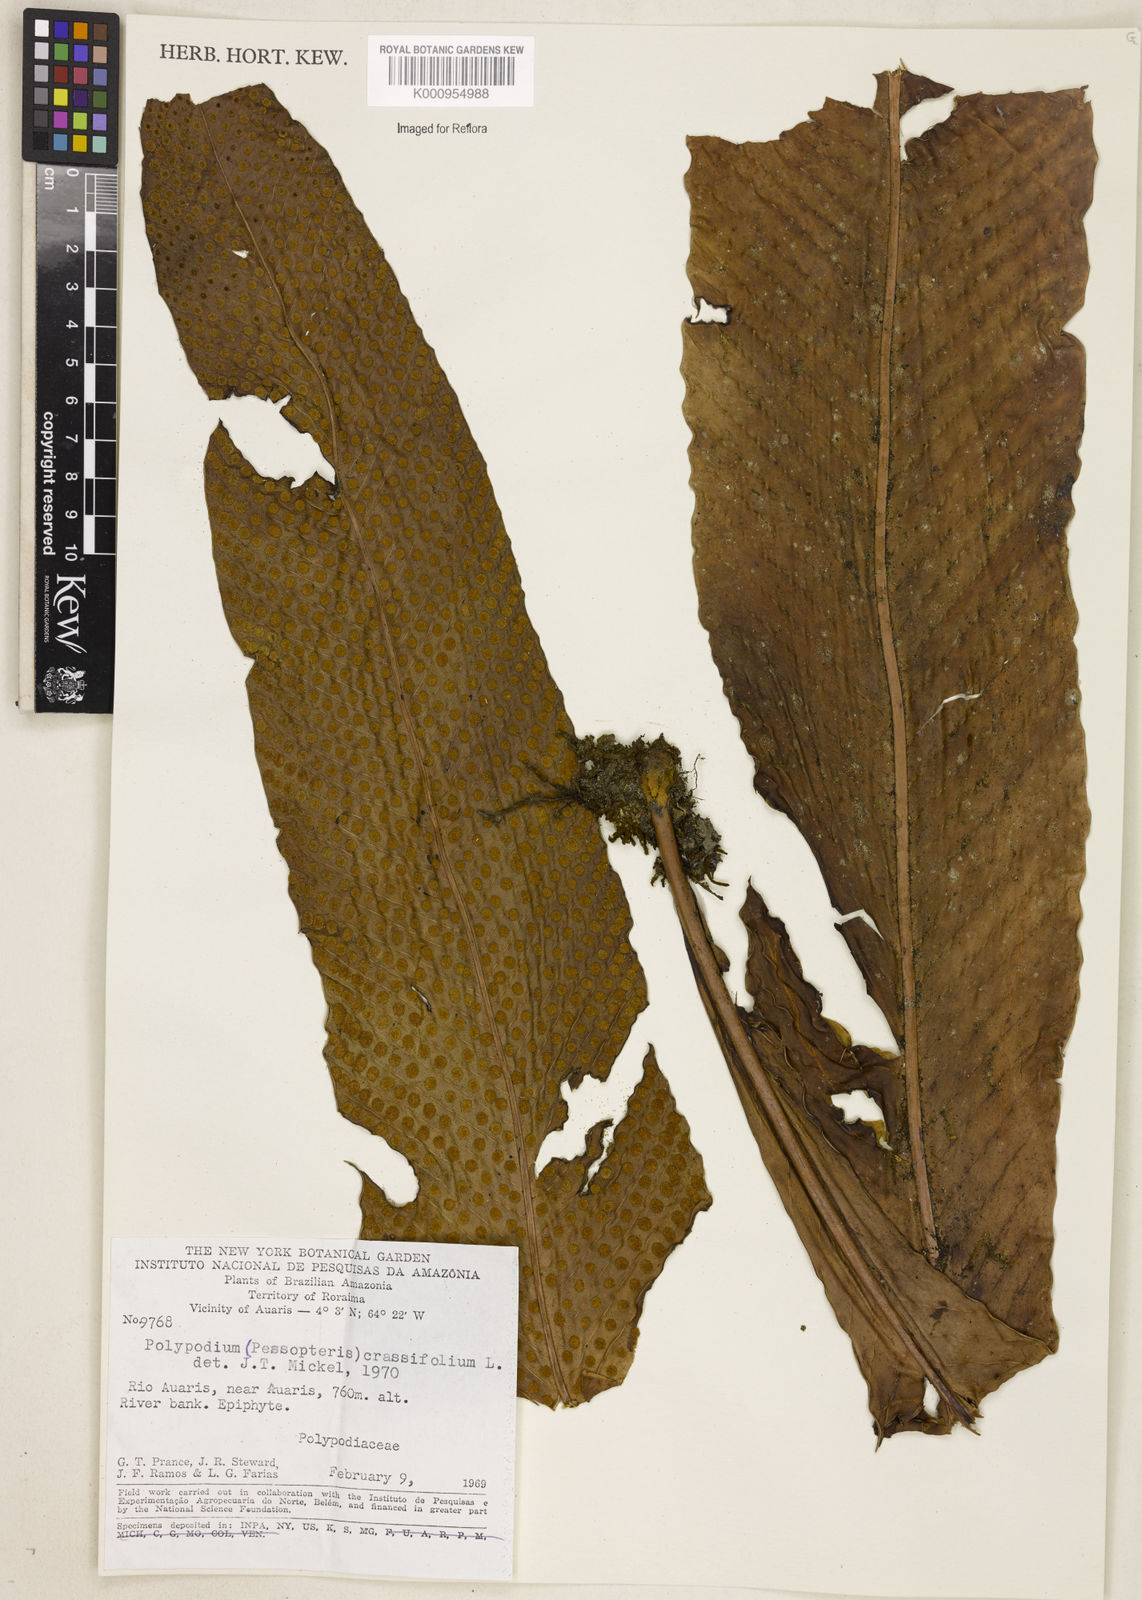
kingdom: Plantae
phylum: Tracheophyta
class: Polypodiopsida
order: Polypodiales
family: Polypodiaceae
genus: Niphidium
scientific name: Niphidium crassifolium
